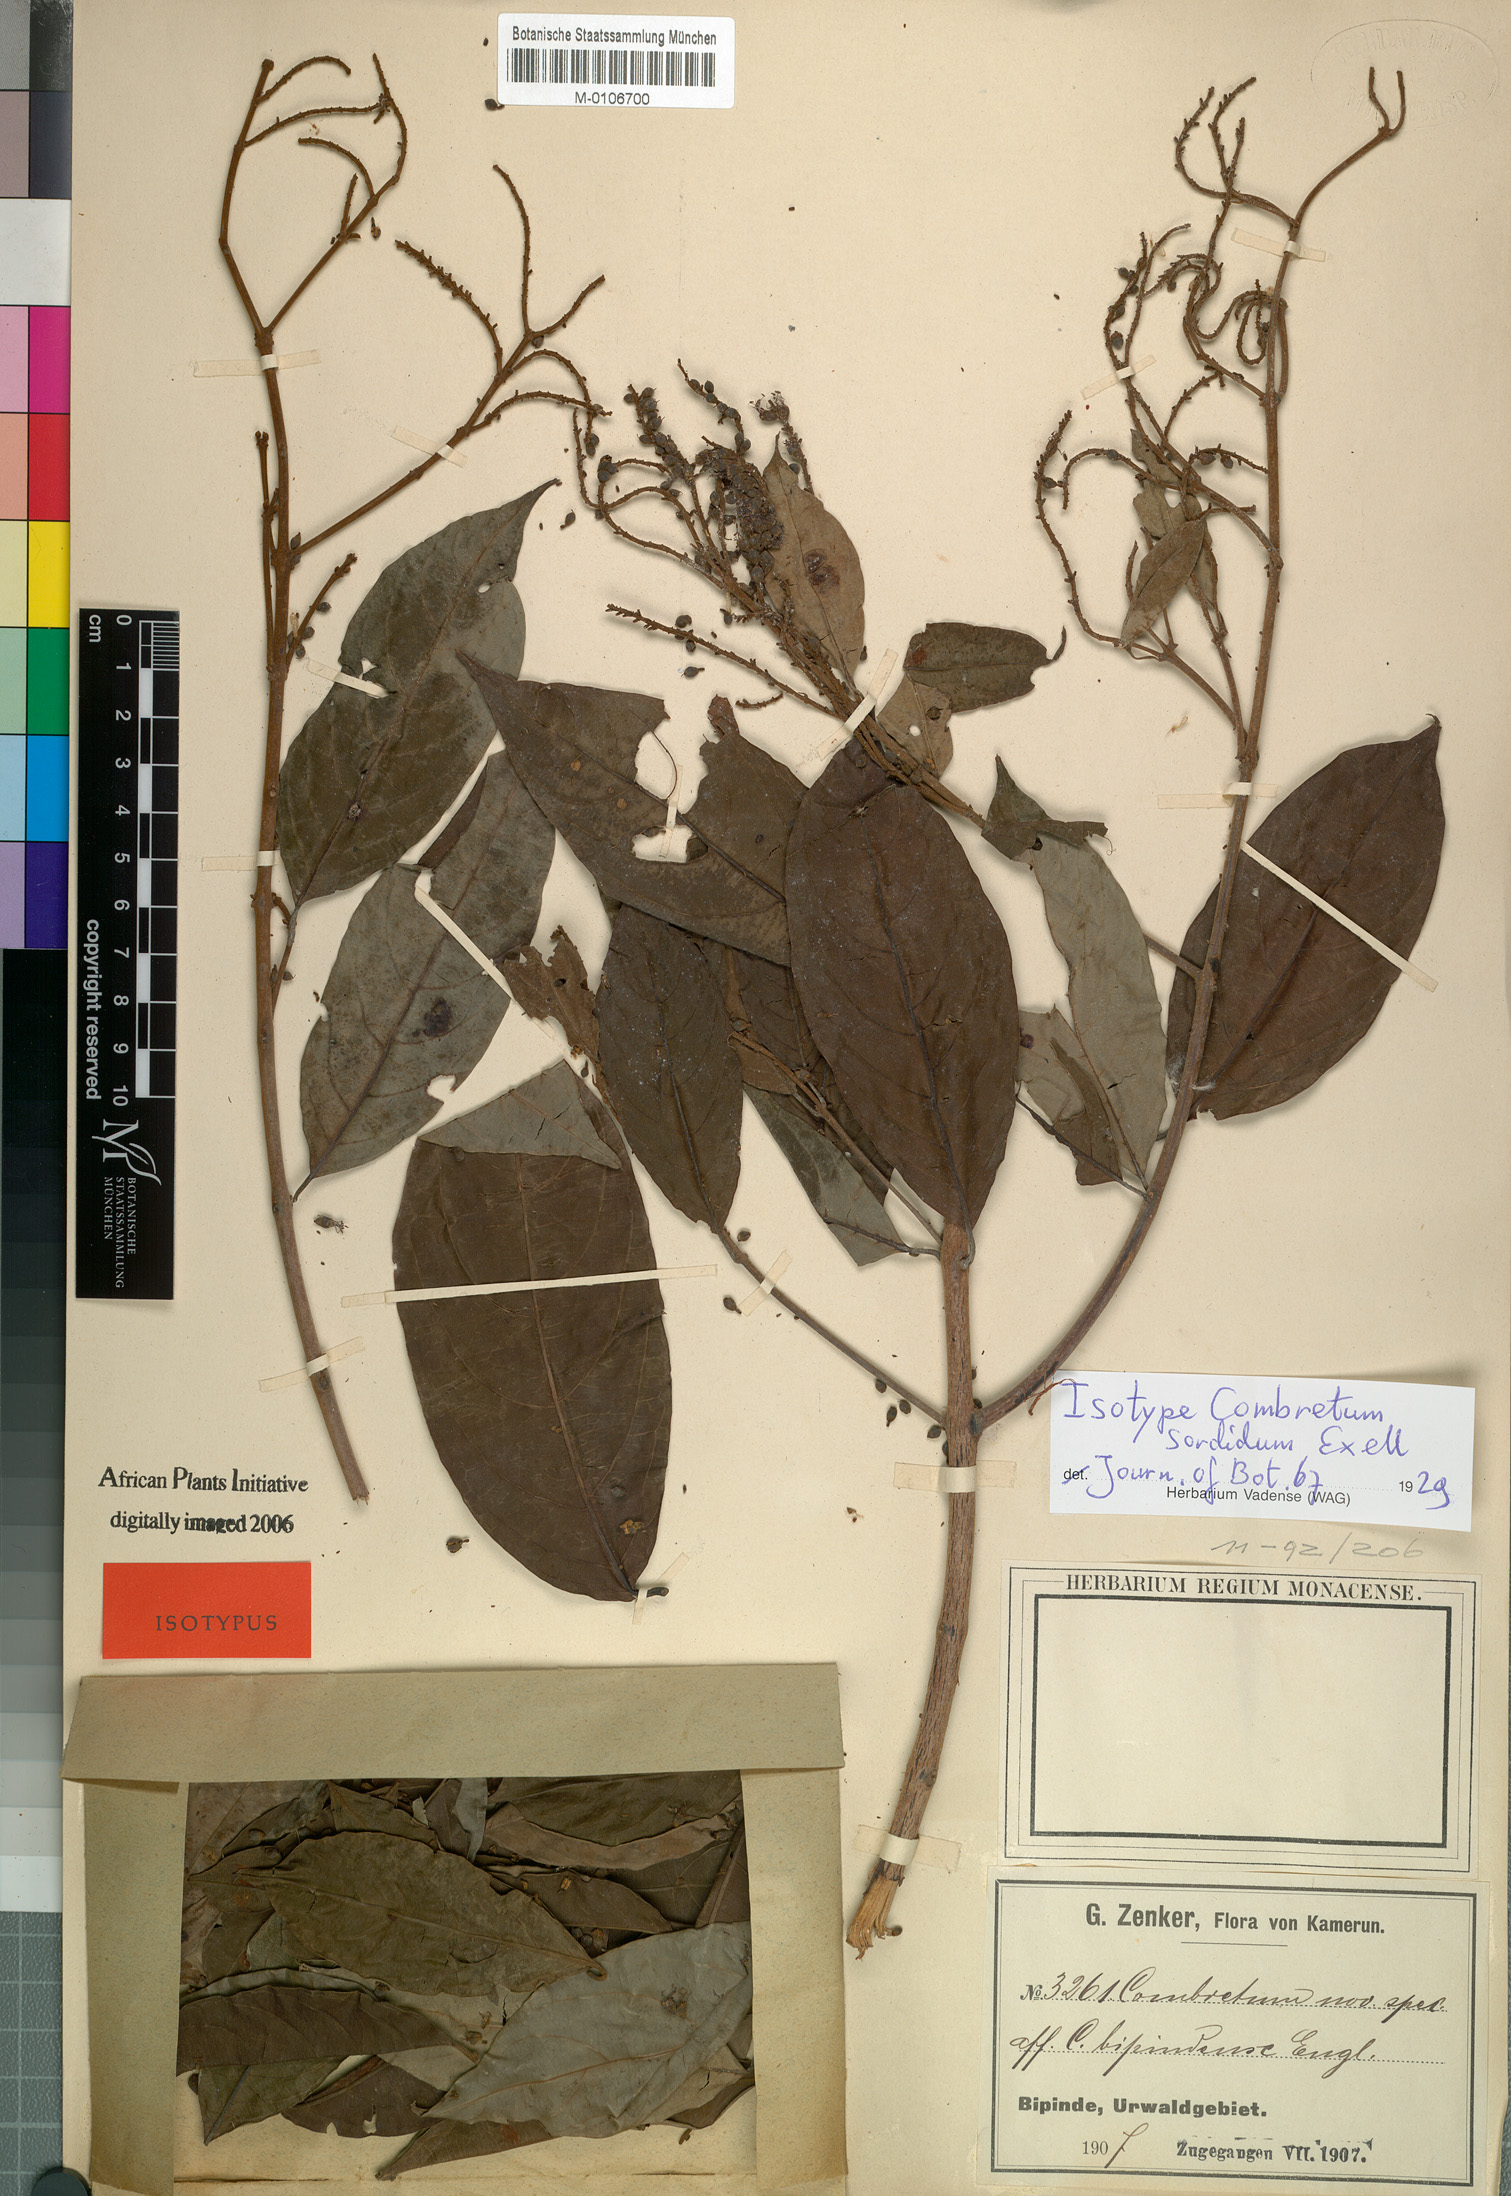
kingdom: Plantae
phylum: Tracheophyta
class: Magnoliopsida
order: Myrtales
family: Combretaceae
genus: Combretum
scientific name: Combretum sordidum
